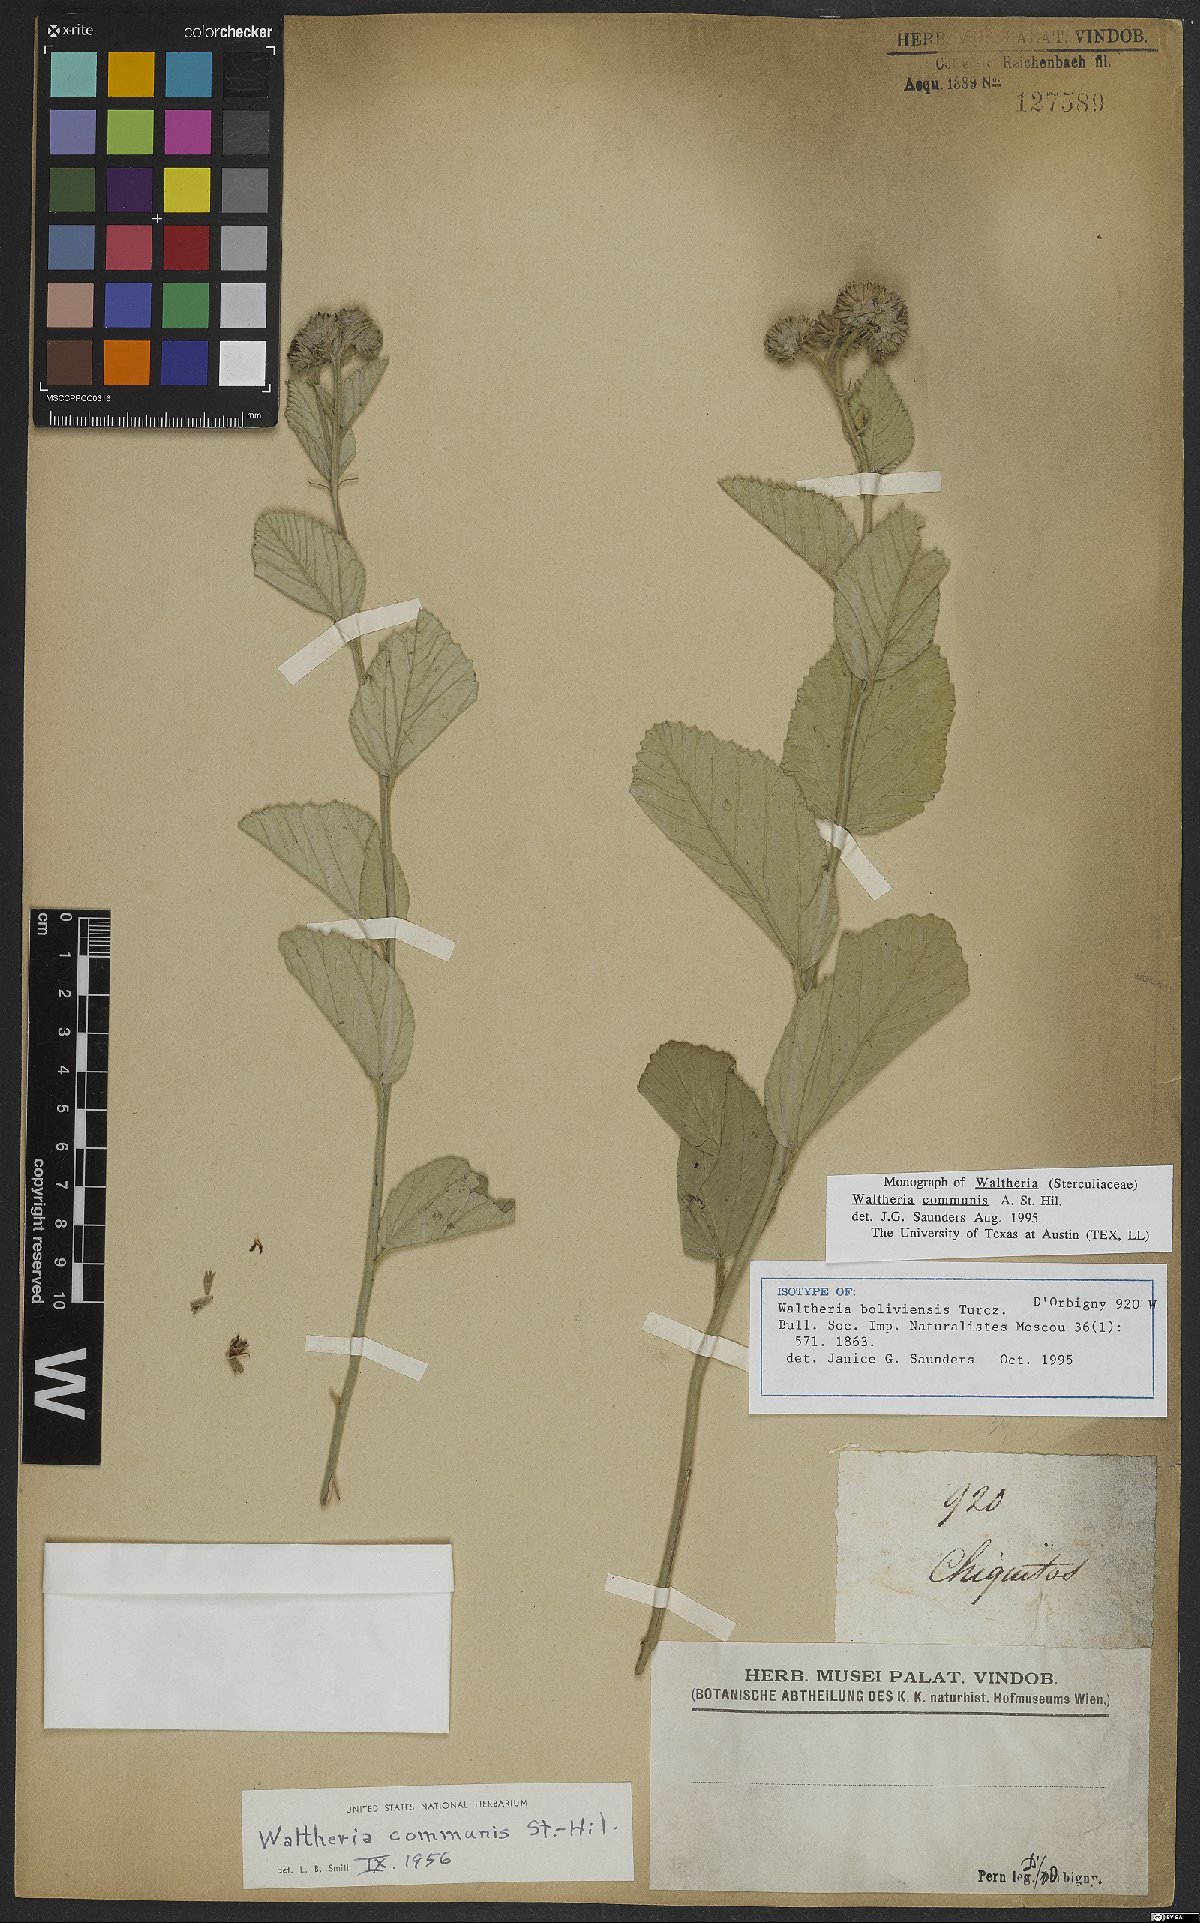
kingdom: Plantae
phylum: Tracheophyta
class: Magnoliopsida
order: Malvales
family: Malvaceae
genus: Waltheria
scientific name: Waltheria communis
